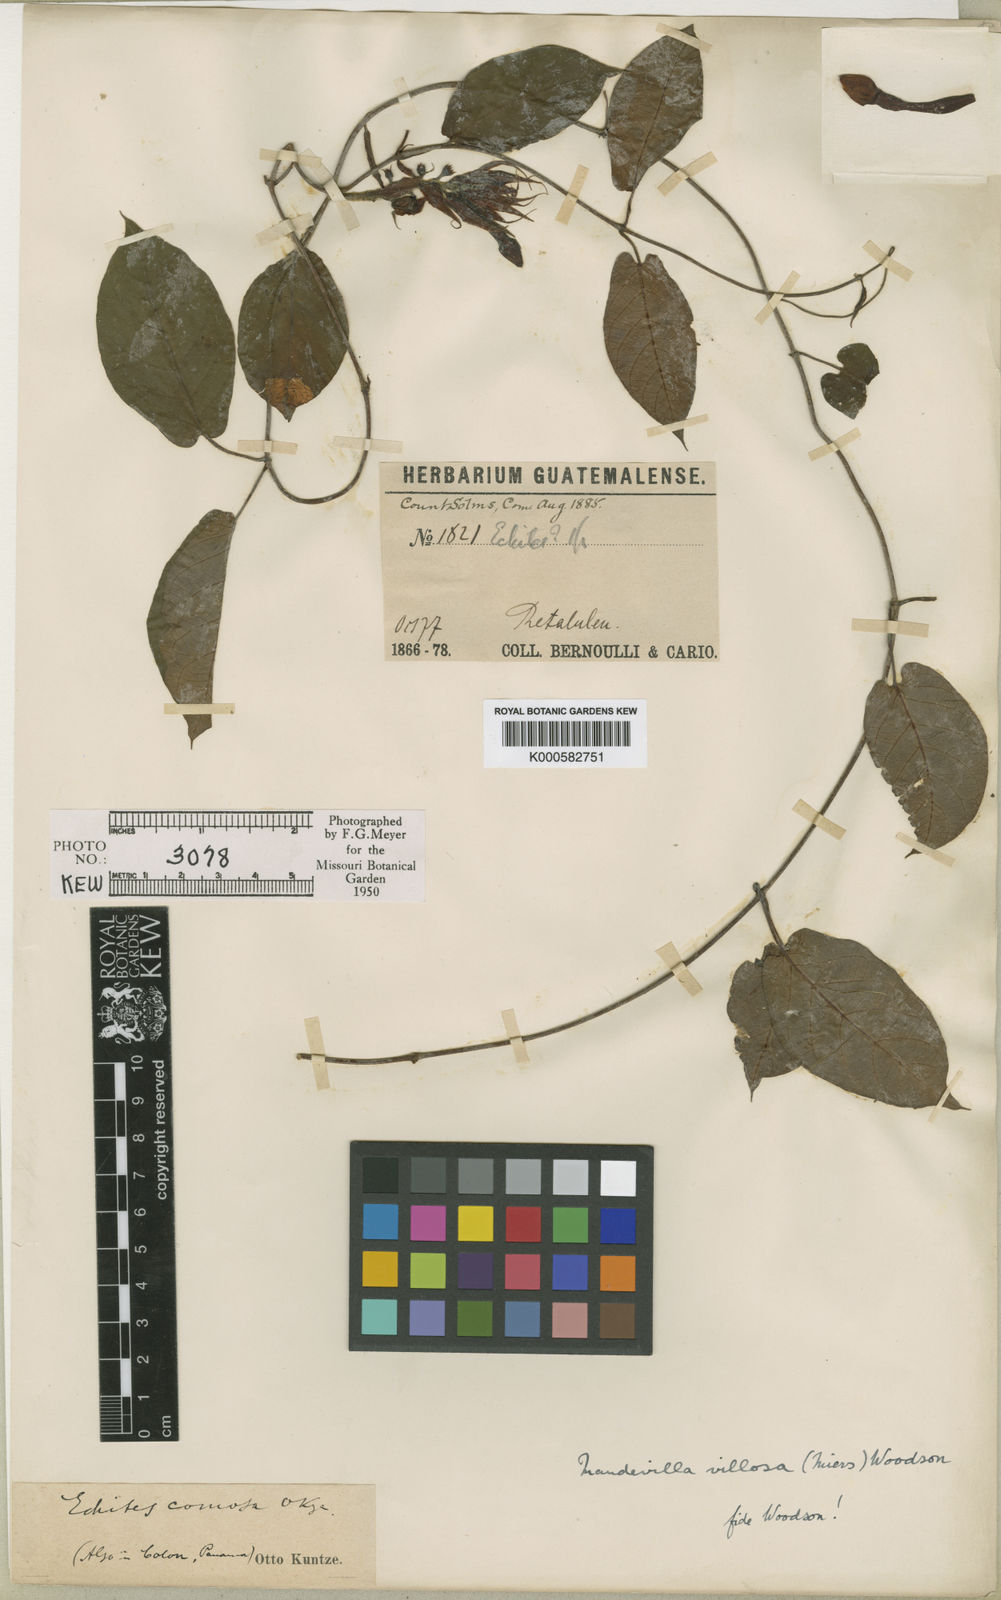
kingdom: Plantae
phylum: Tracheophyta
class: Magnoliopsida
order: Gentianales
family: Apocynaceae
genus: Mandevilla
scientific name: Mandevilla villosa
